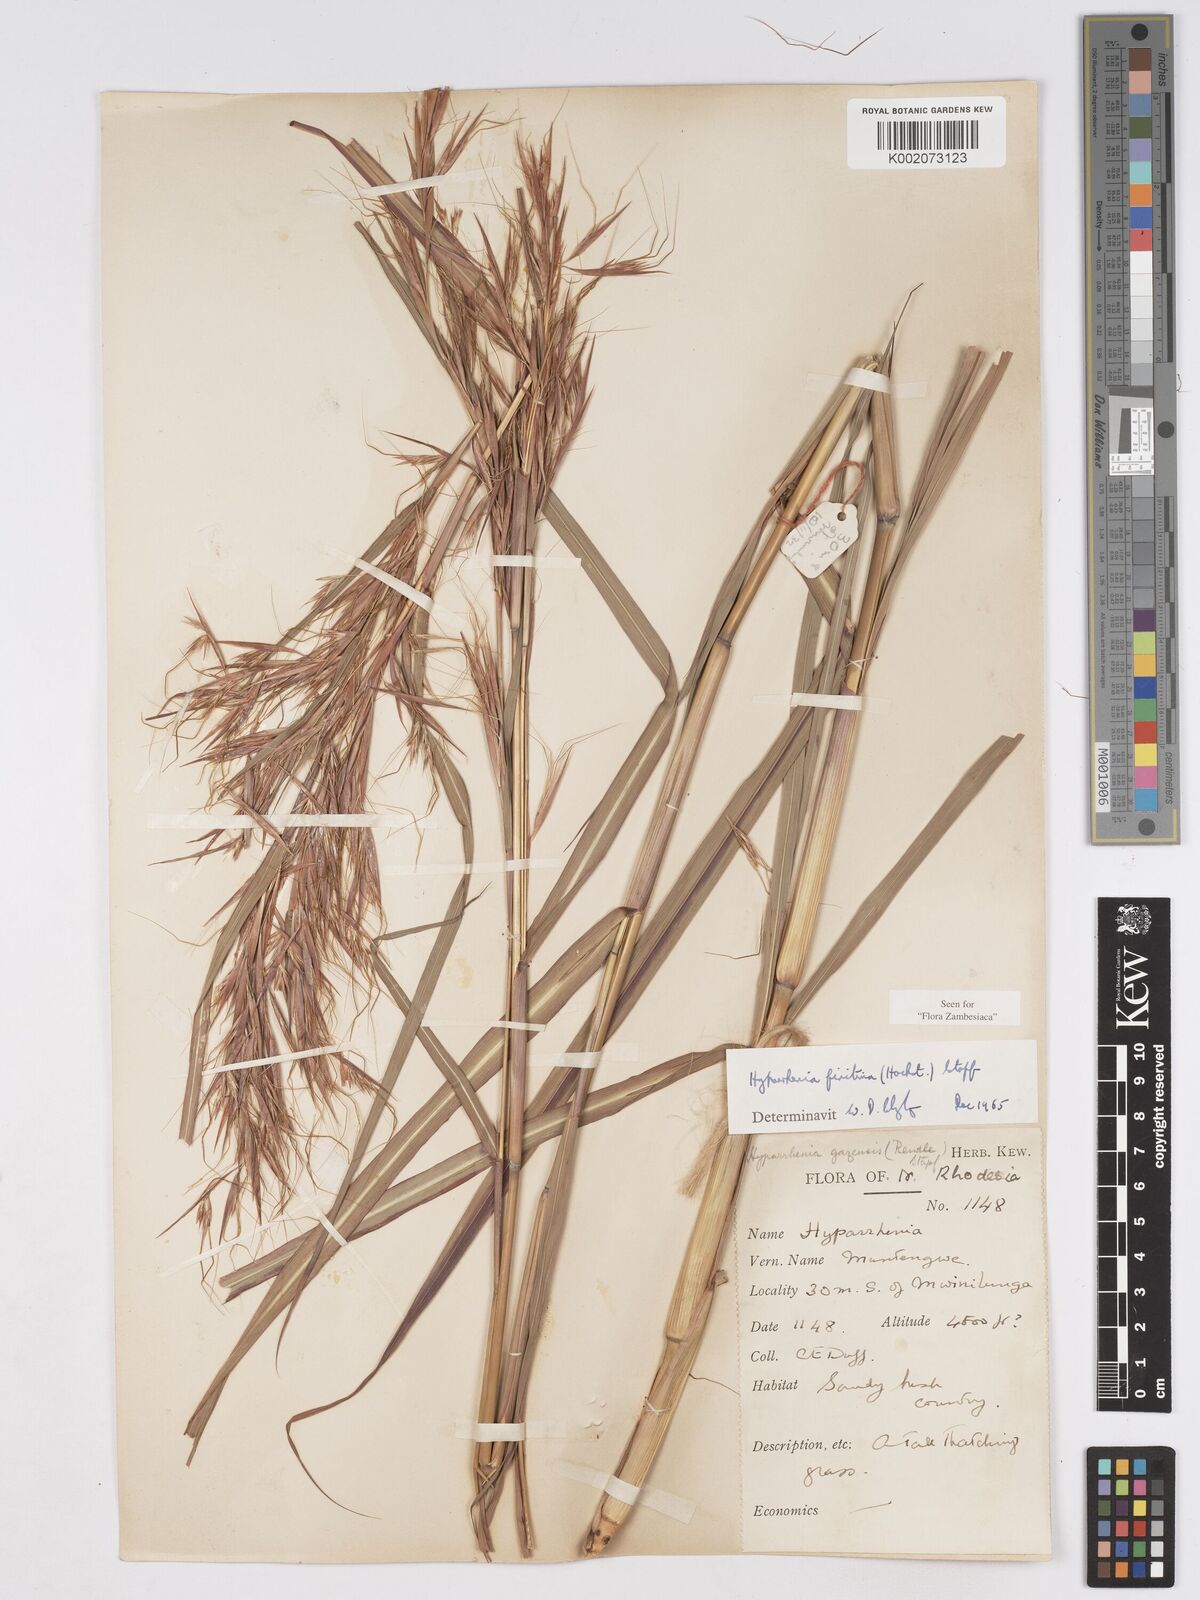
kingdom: Plantae
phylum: Tracheophyta
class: Liliopsida
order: Poales
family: Poaceae
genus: Hyparrhenia
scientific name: Hyparrhenia finitima
